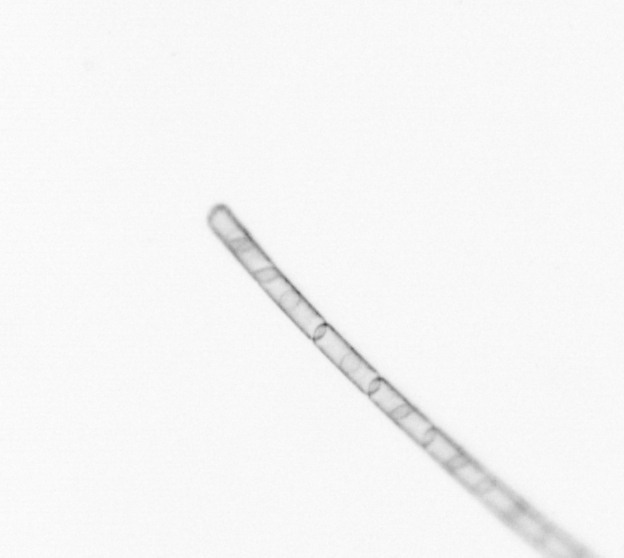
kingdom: Chromista
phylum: Ochrophyta
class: Bacillariophyceae
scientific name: Bacillariophyceae
